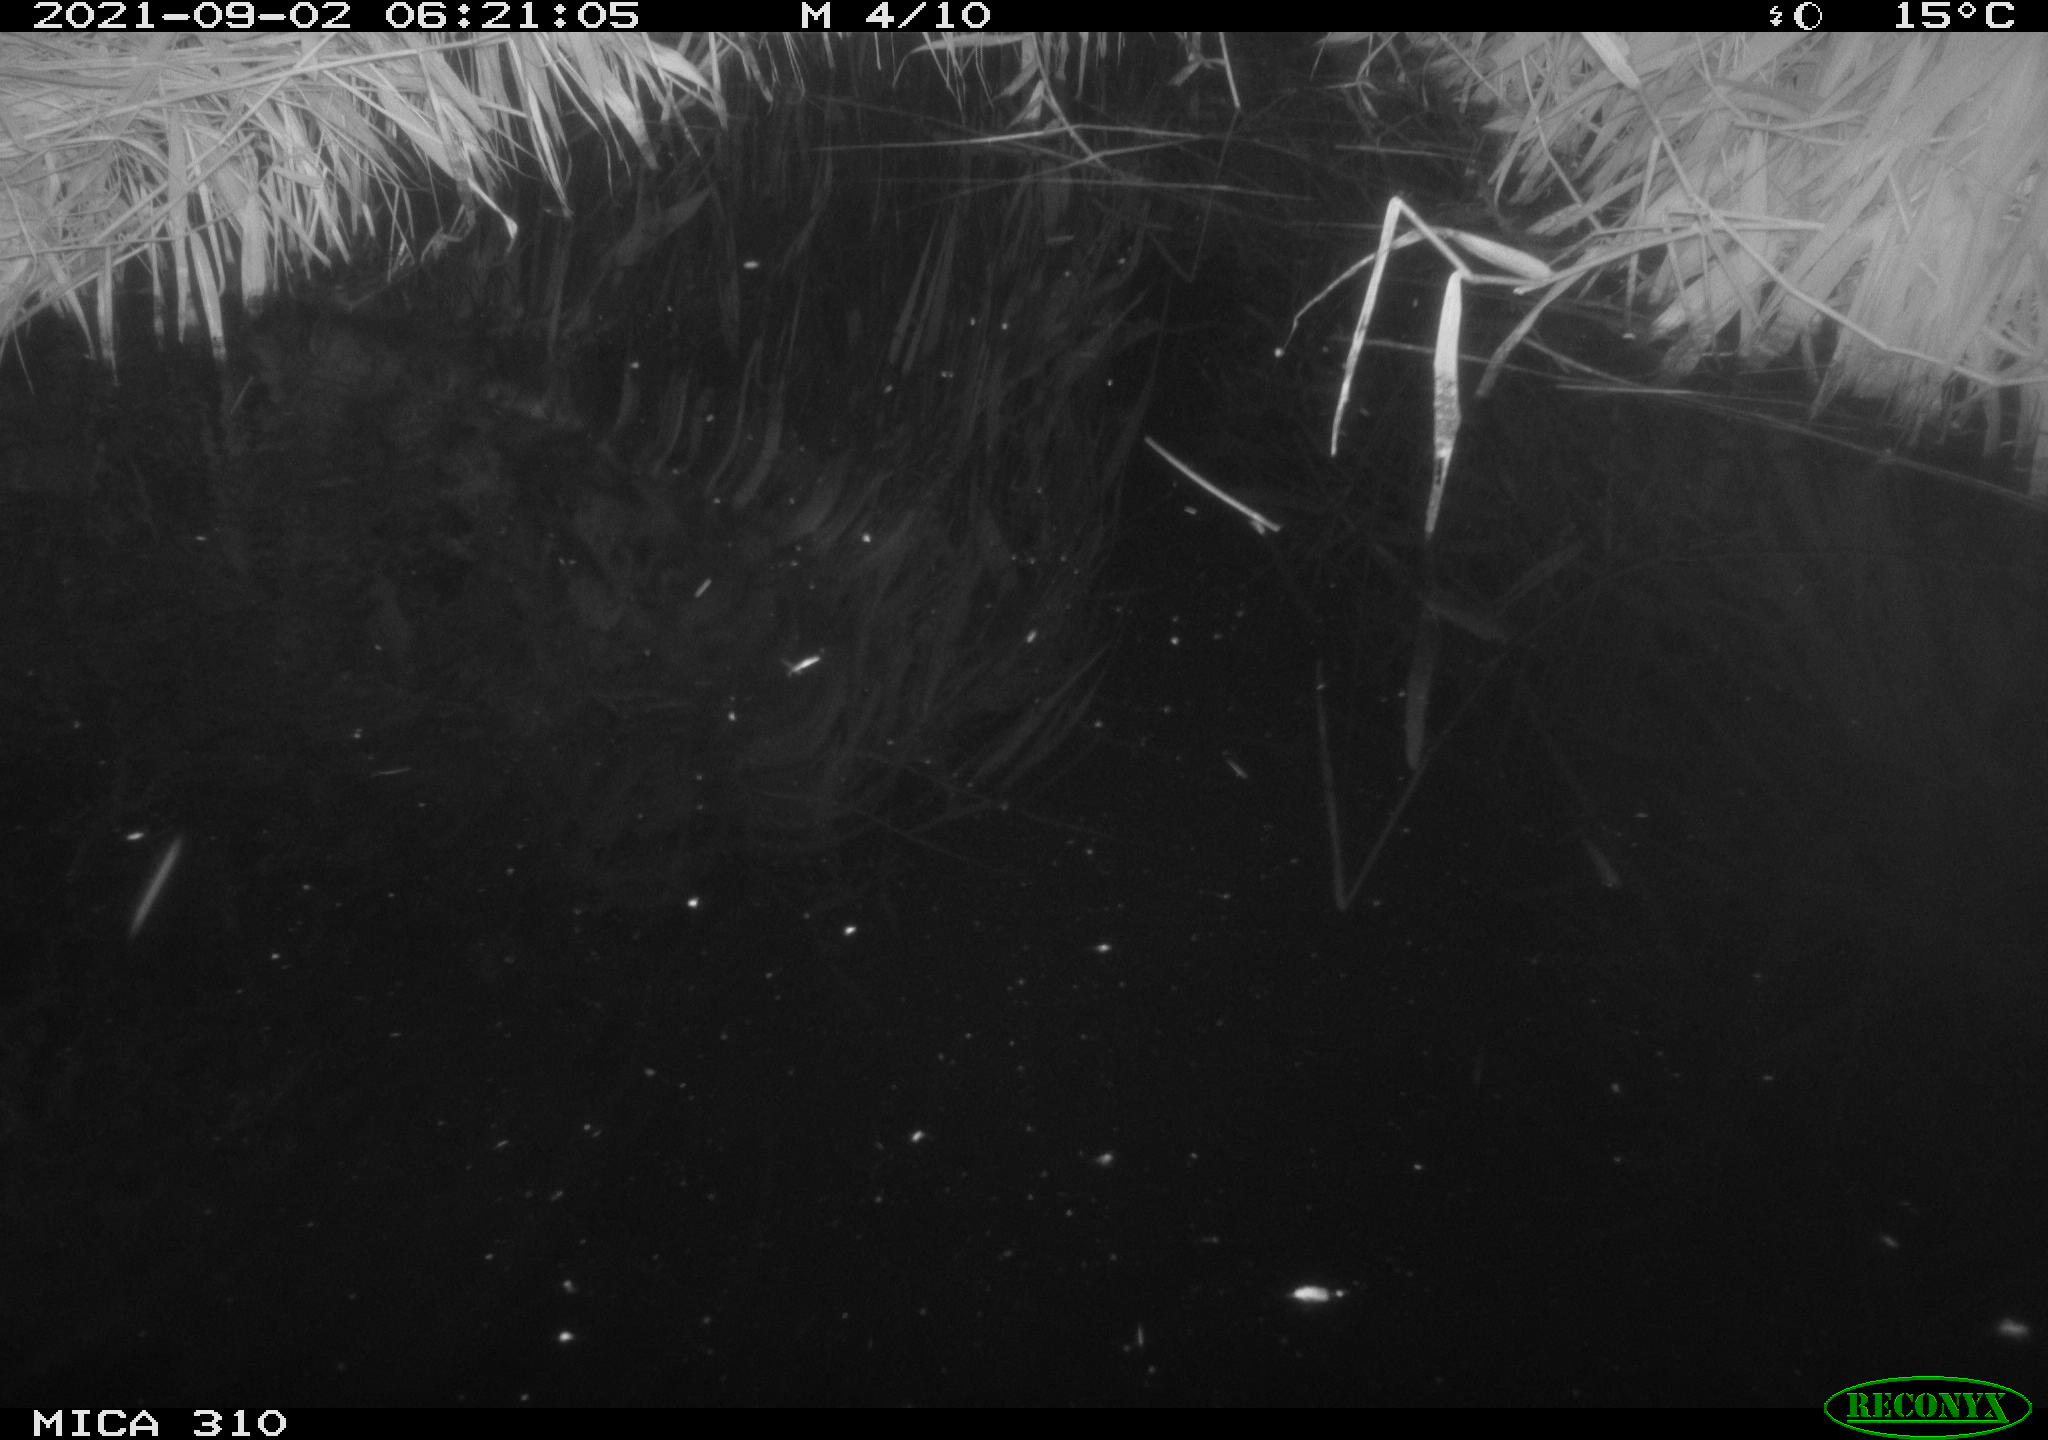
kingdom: Animalia
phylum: Chordata
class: Mammalia
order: Rodentia
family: Muridae
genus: Rattus
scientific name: Rattus norvegicus
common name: Brown rat
